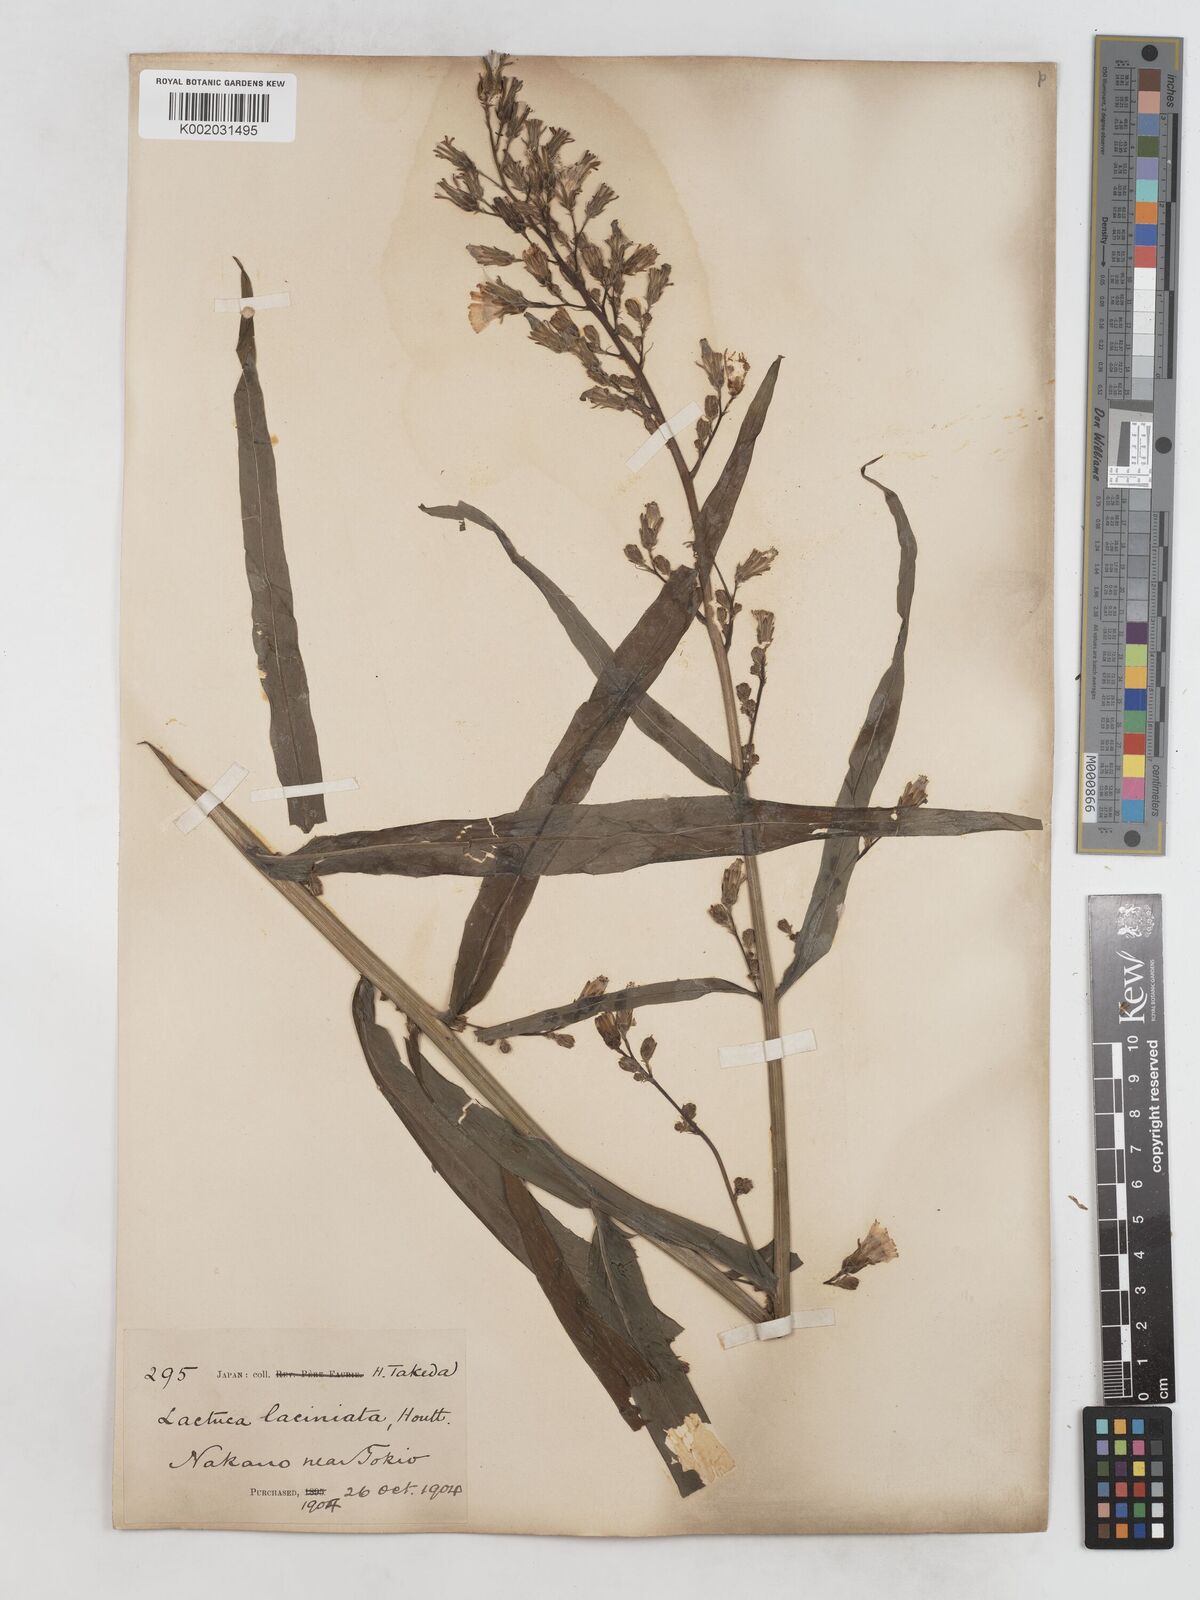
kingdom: Plantae
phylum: Tracheophyta
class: Magnoliopsida
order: Asterales
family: Asteraceae
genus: Lactuca
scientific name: Lactuca
